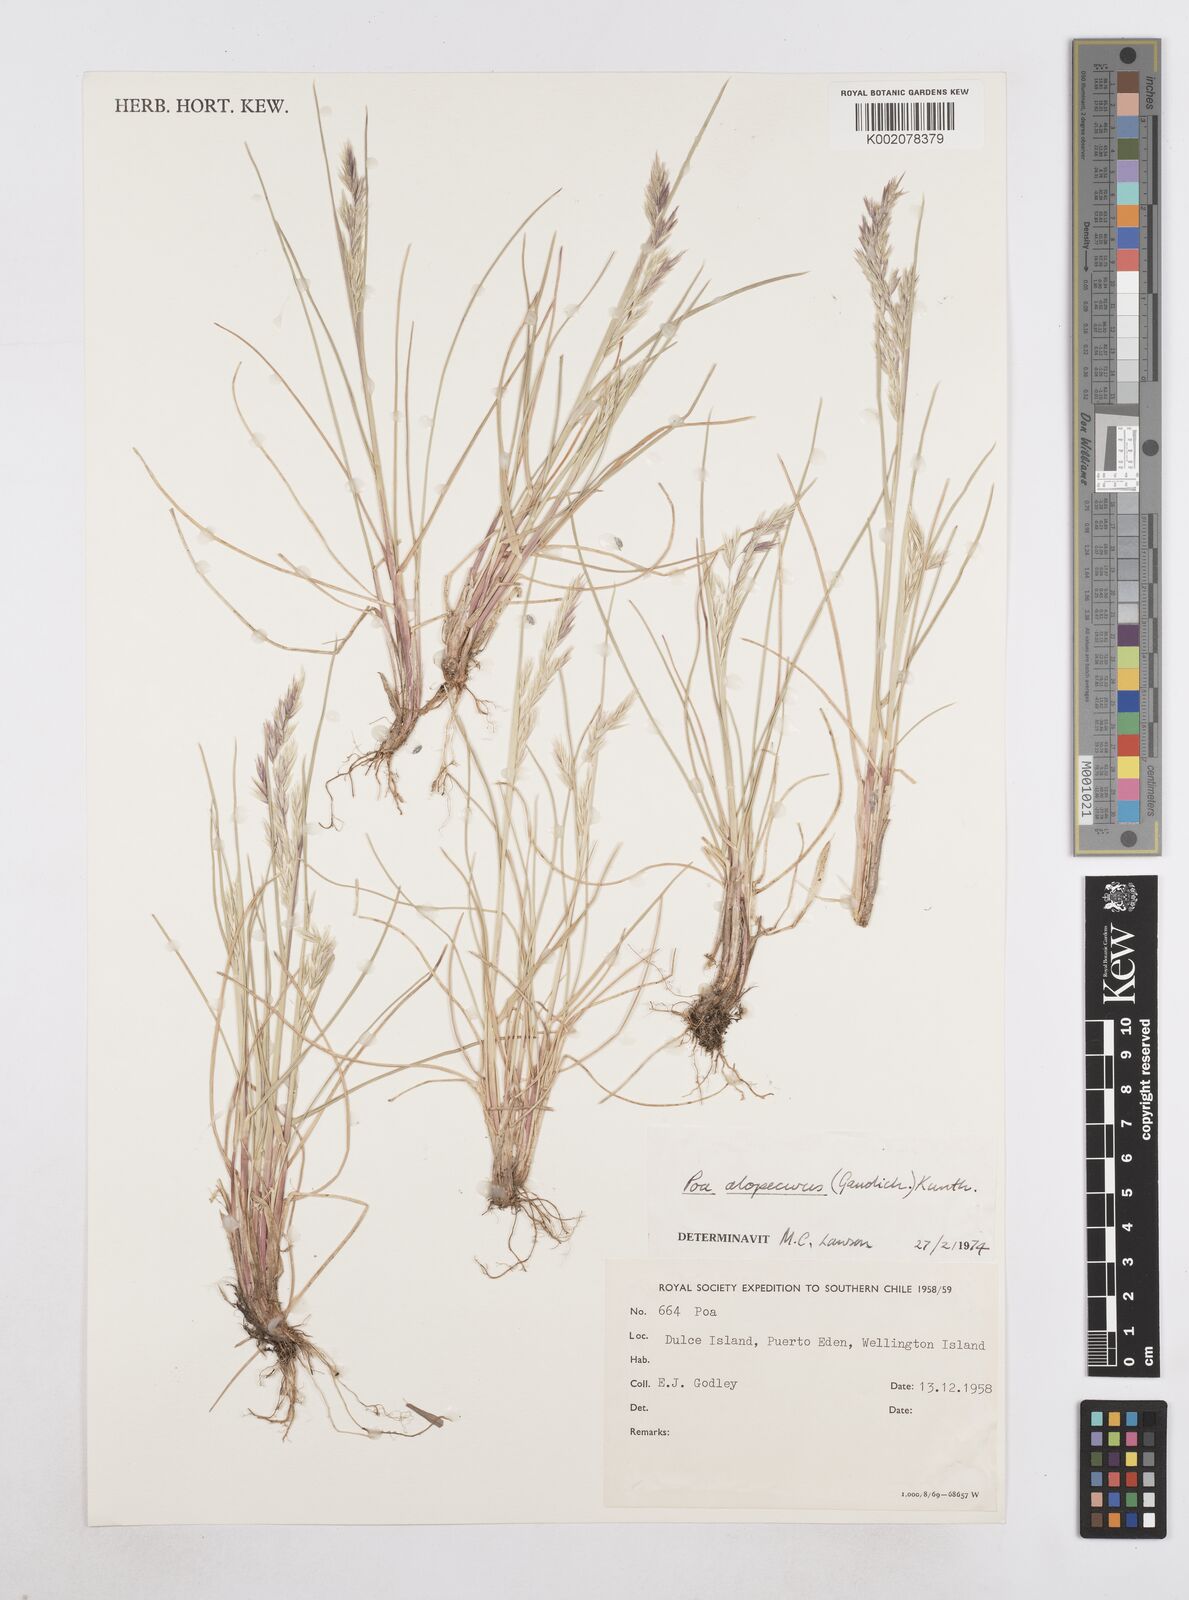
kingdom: Plantae
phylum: Tracheophyta
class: Liliopsida
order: Poales
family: Poaceae
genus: Poa
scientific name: Poa alopecurus
